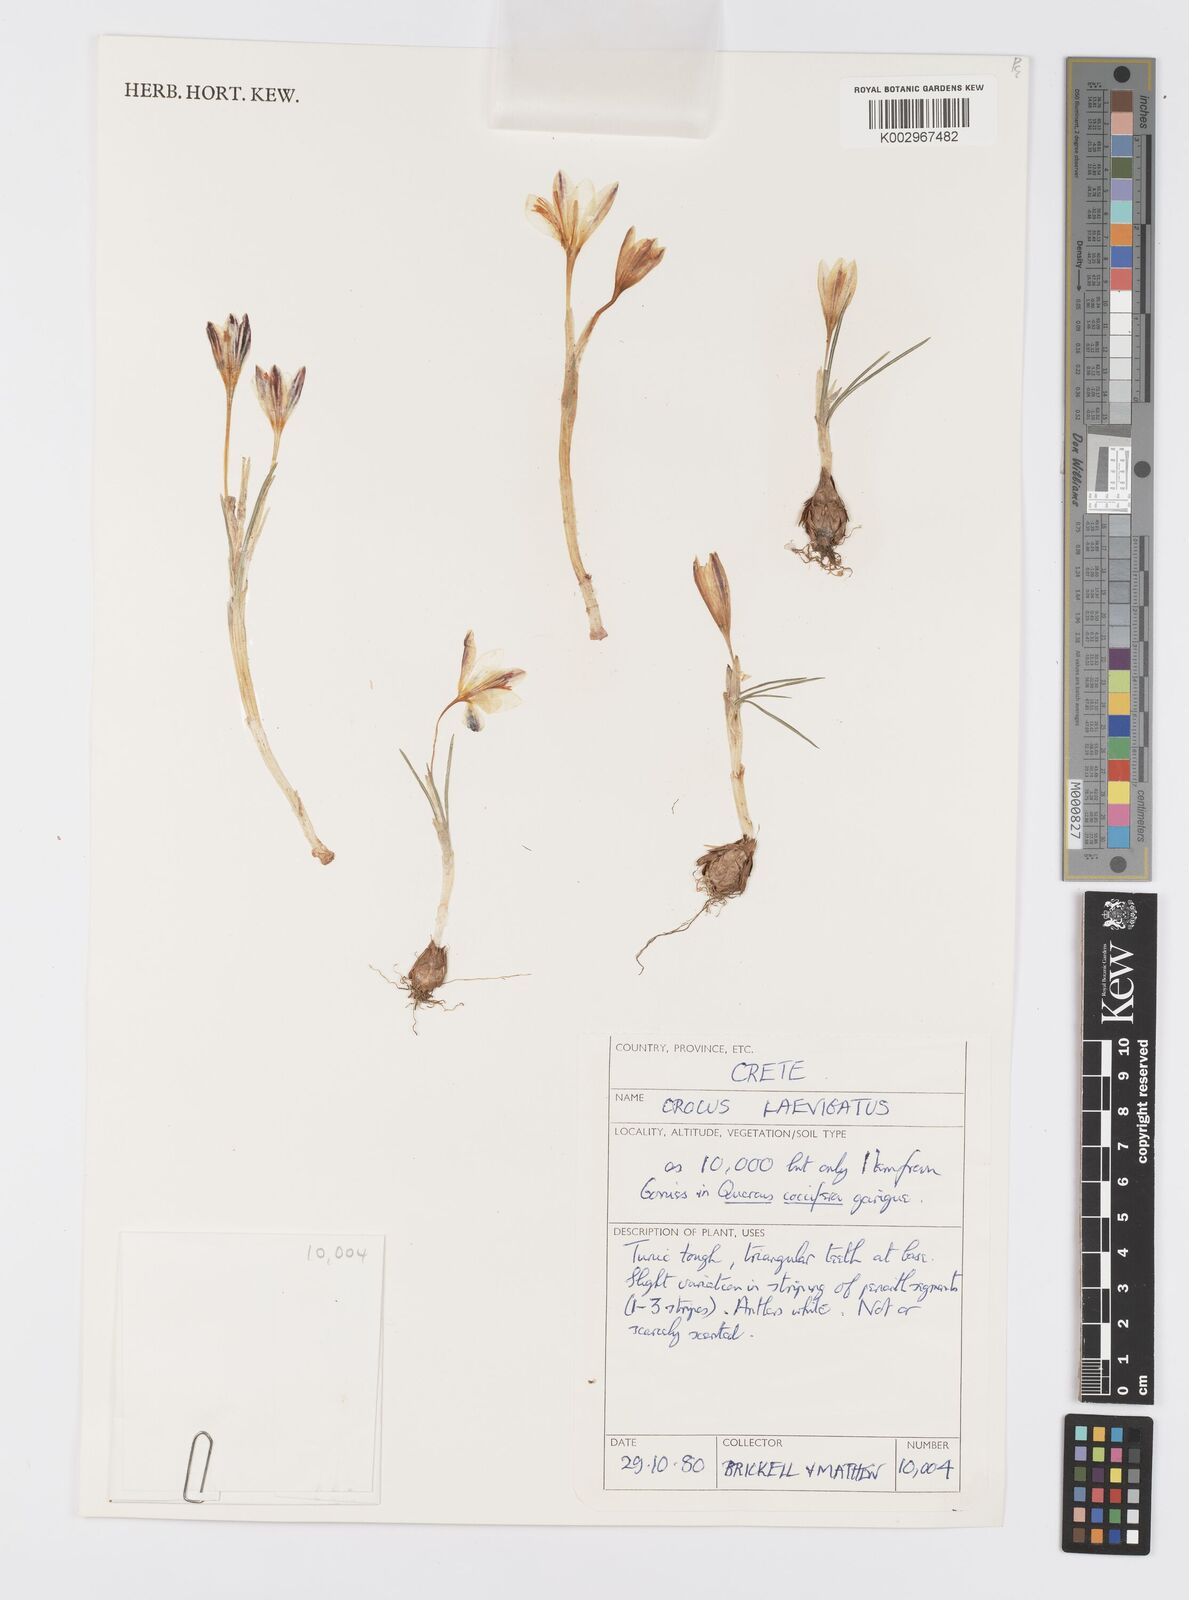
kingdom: Plantae
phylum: Tracheophyta
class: Liliopsida
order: Asparagales
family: Iridaceae
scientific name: Iridaceae
